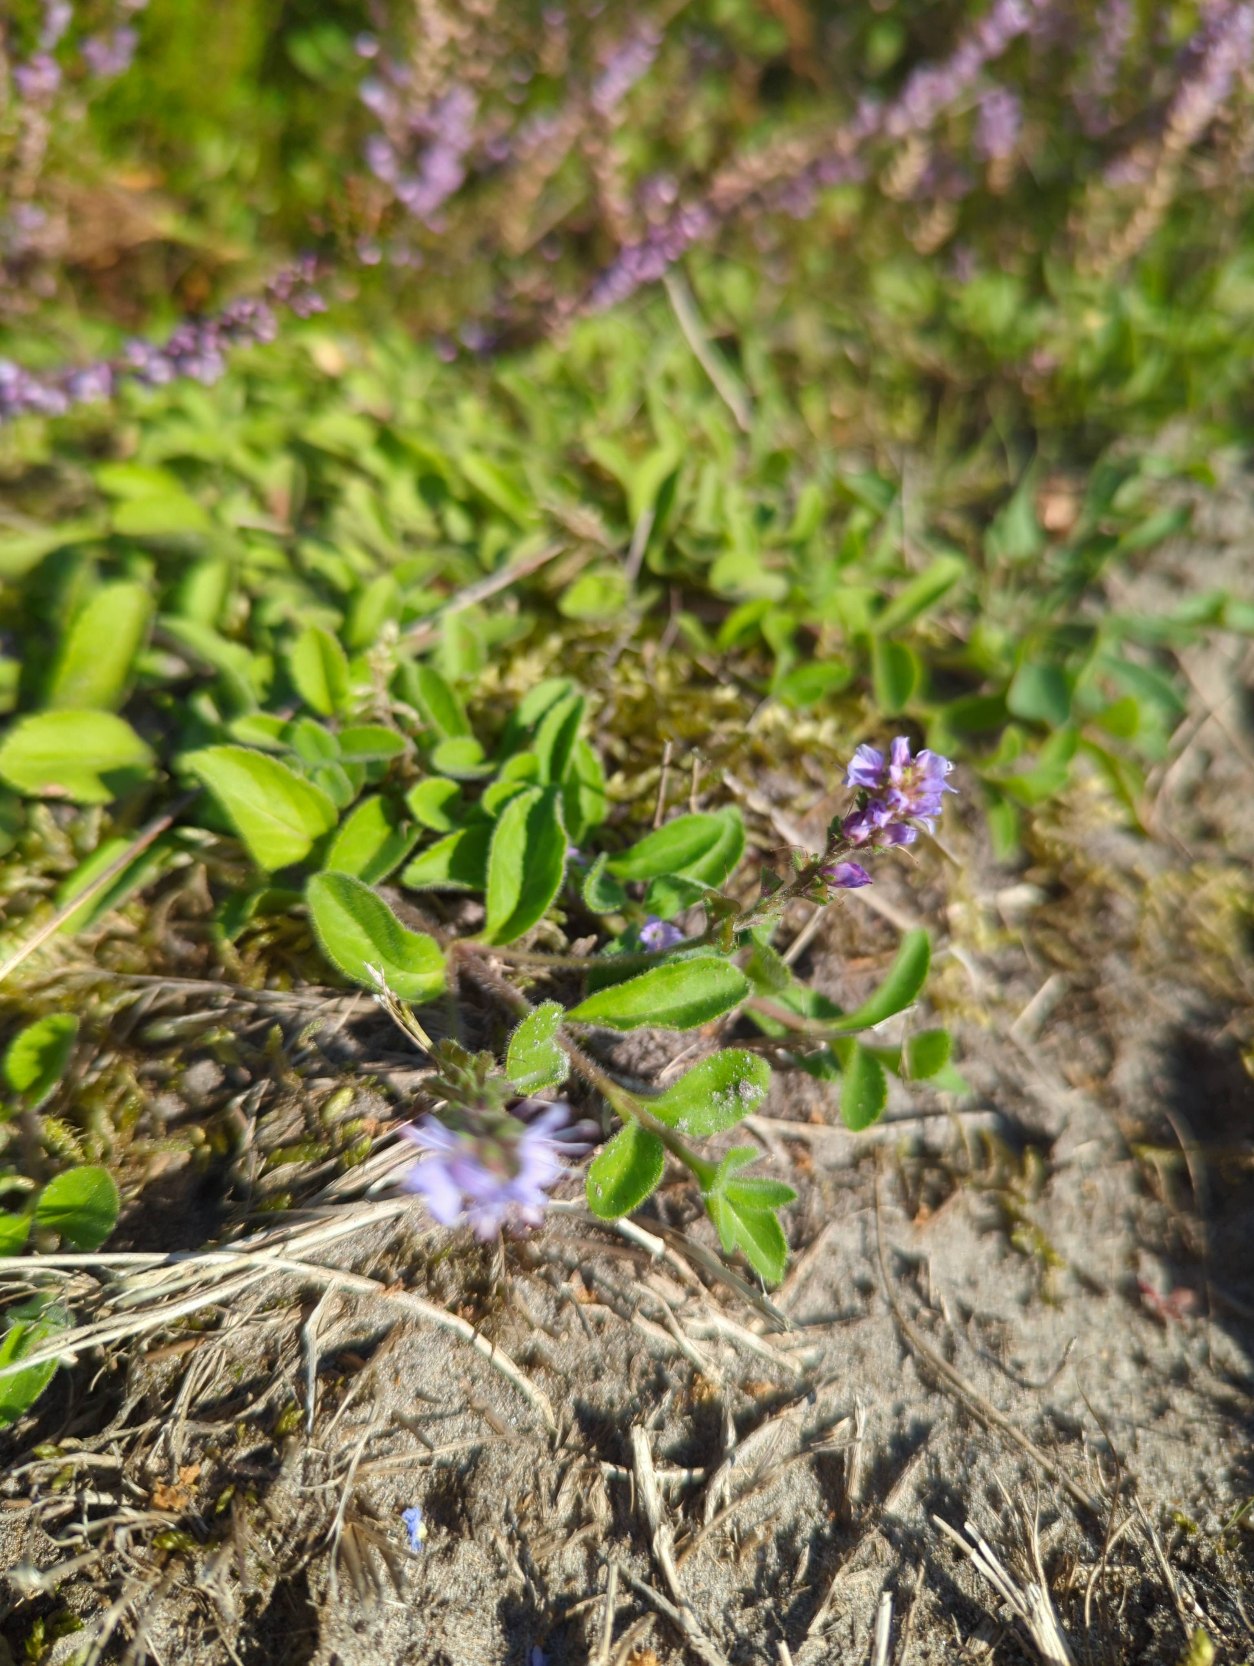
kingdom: Plantae
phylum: Tracheophyta
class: Magnoliopsida
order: Lamiales
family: Plantaginaceae
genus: Veronica
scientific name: Veronica officinalis
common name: Læge-ærenpris
